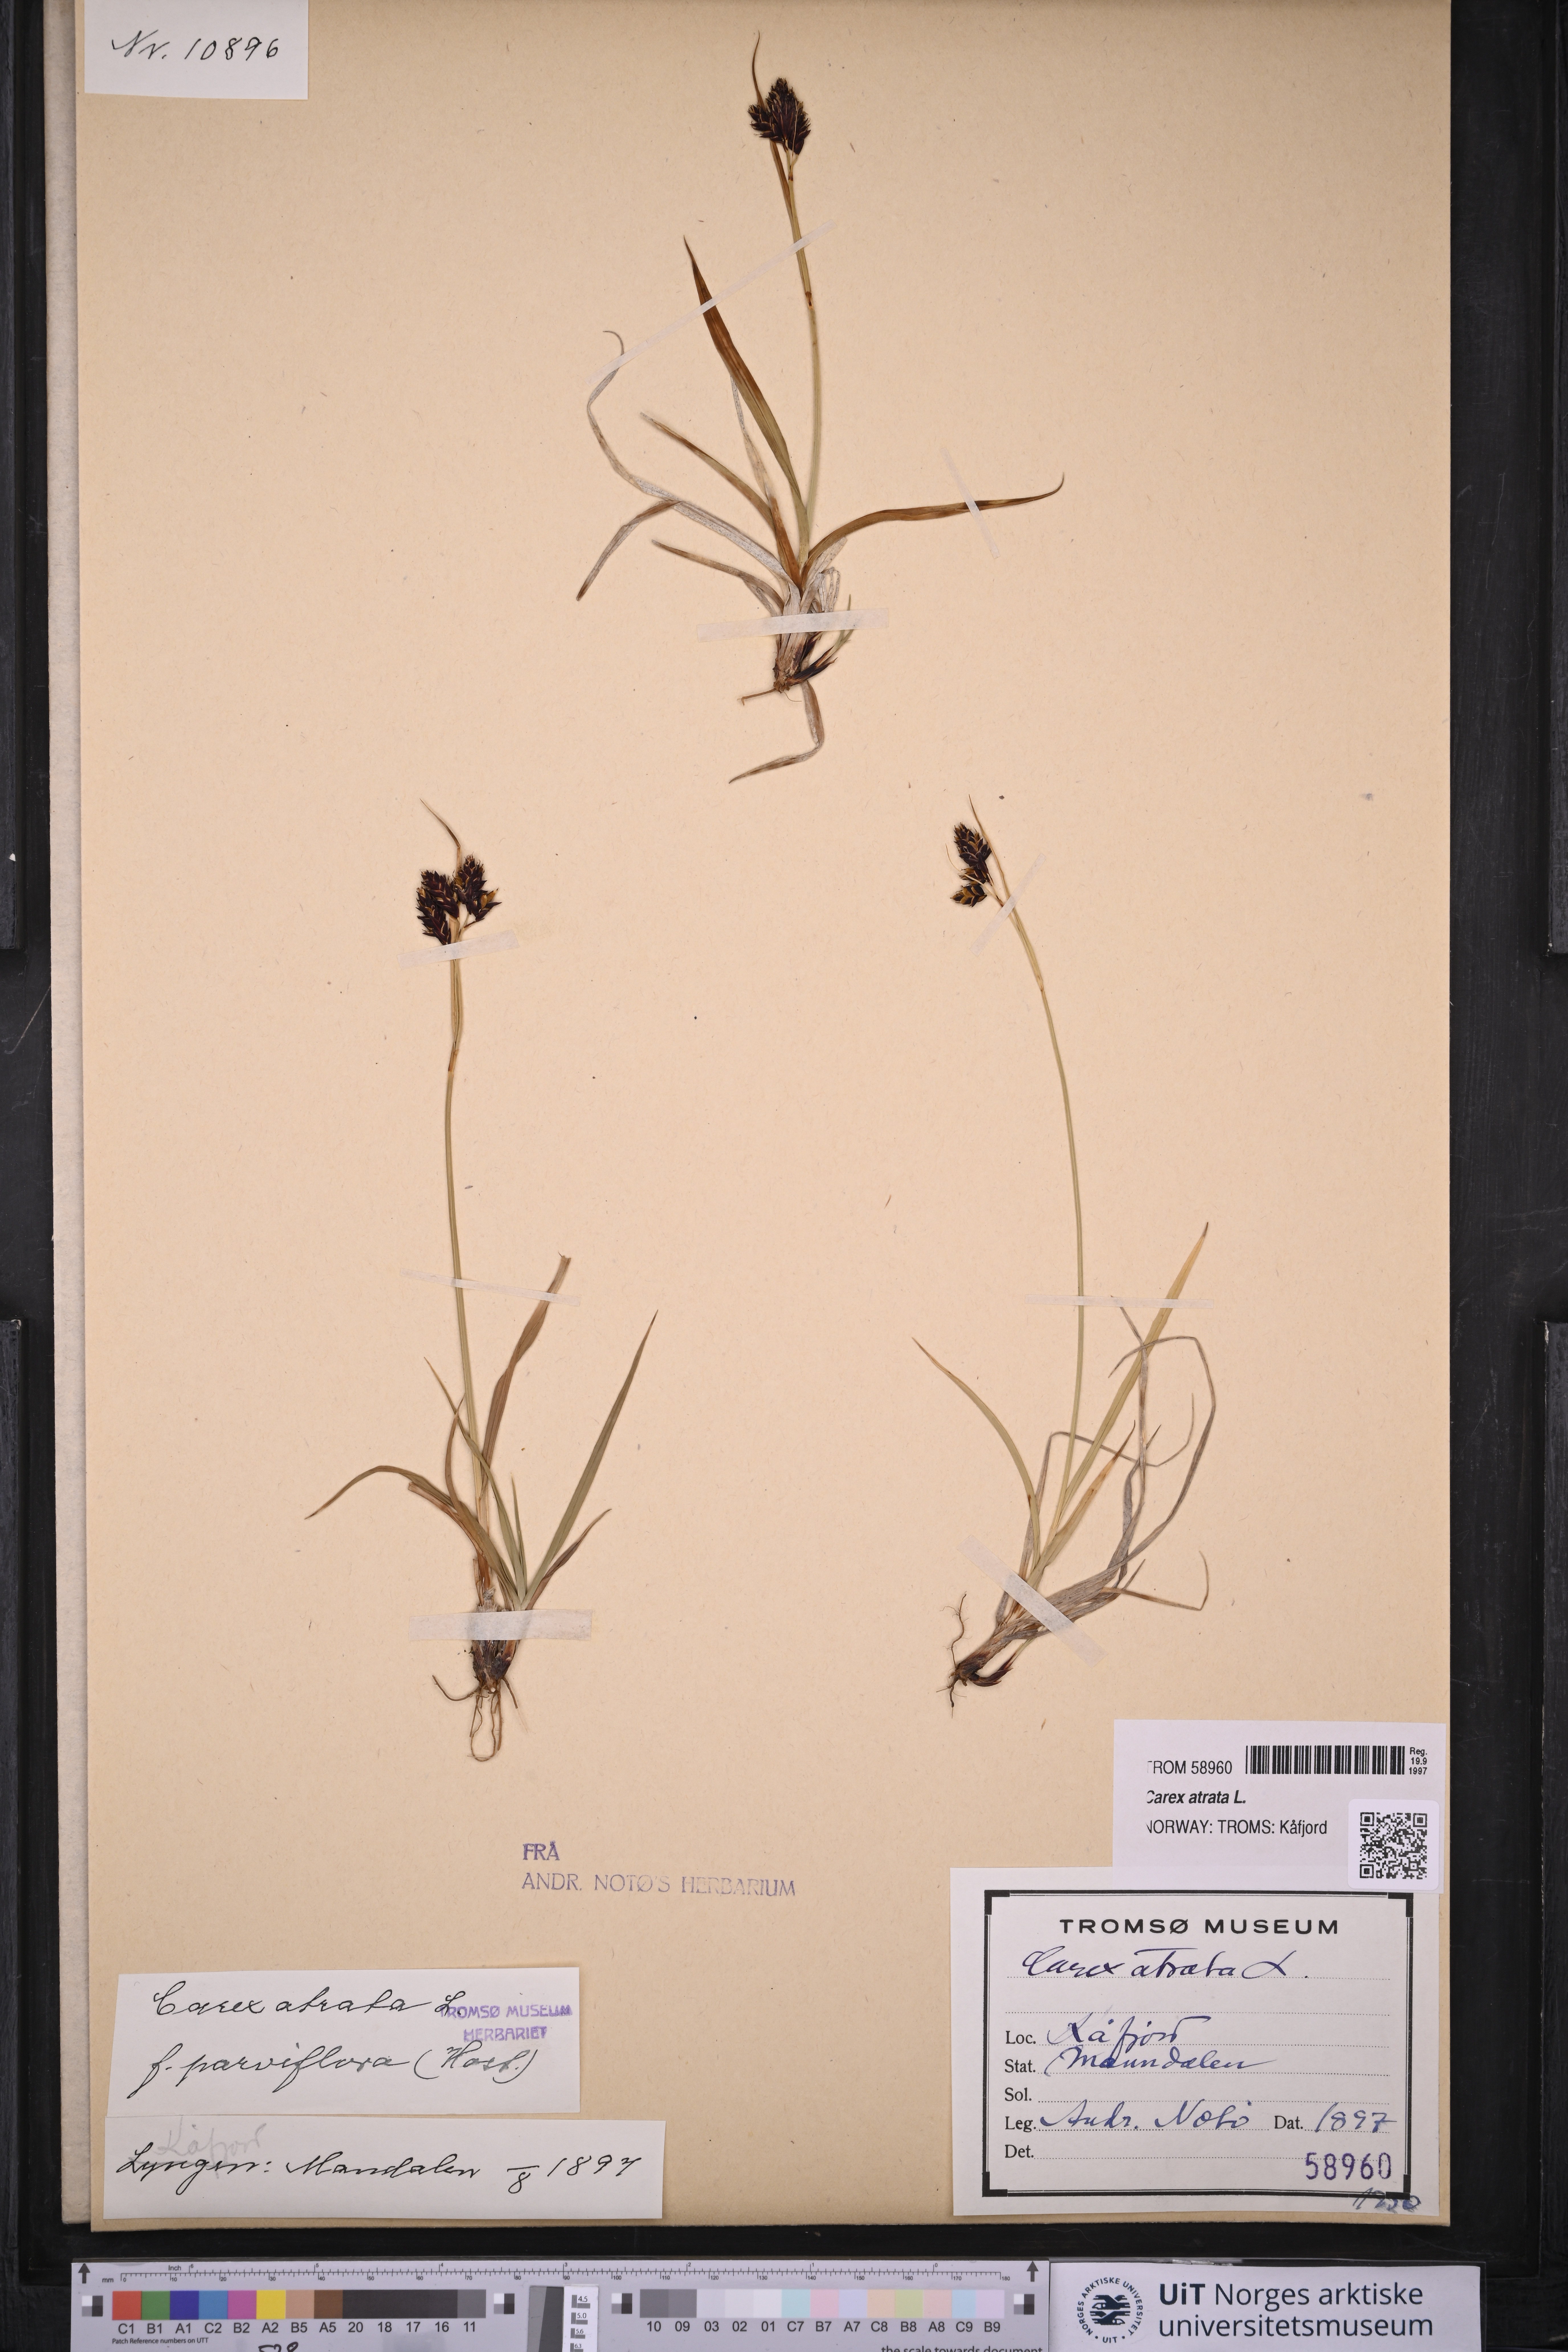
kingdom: Plantae
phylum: Tracheophyta
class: Liliopsida
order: Poales
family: Cyperaceae
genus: Carex
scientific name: Carex atrata
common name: Black alpine sedge
